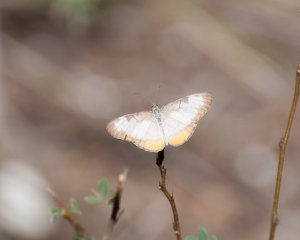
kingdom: Animalia
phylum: Arthropoda
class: Insecta
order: Lepidoptera
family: Nymphalidae
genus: Mestra
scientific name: Mestra amymone
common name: Common Mestra
